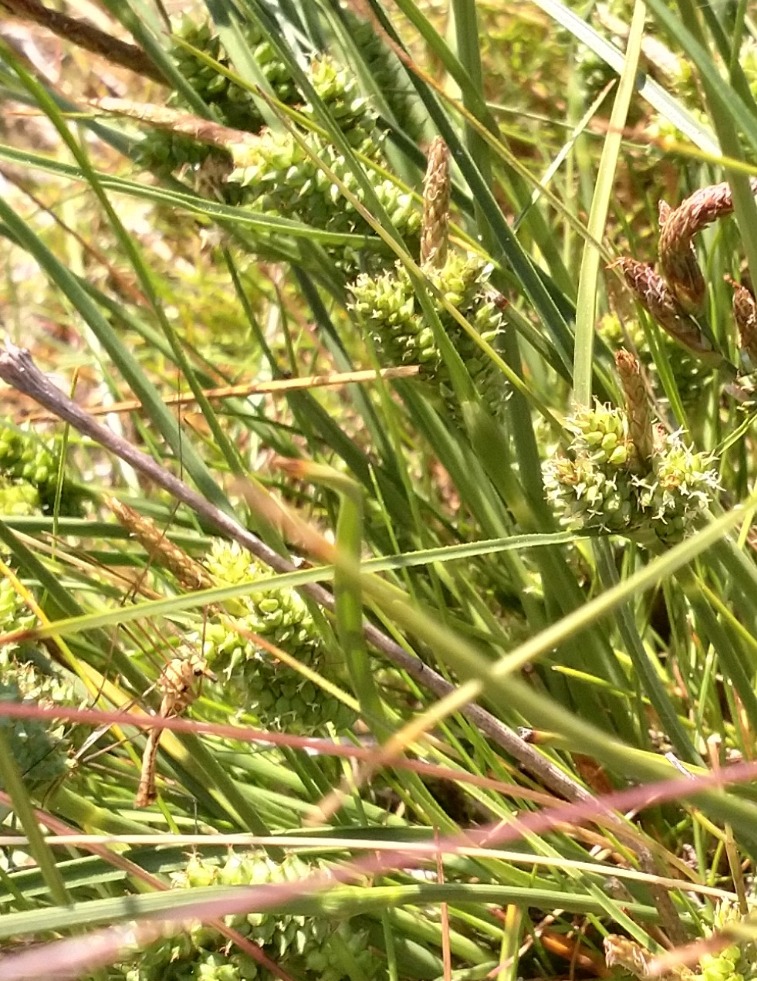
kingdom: Plantae
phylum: Tracheophyta
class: Liliopsida
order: Poales
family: Cyperaceae
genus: Carex
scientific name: Carex extensa
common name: Udspilet star
